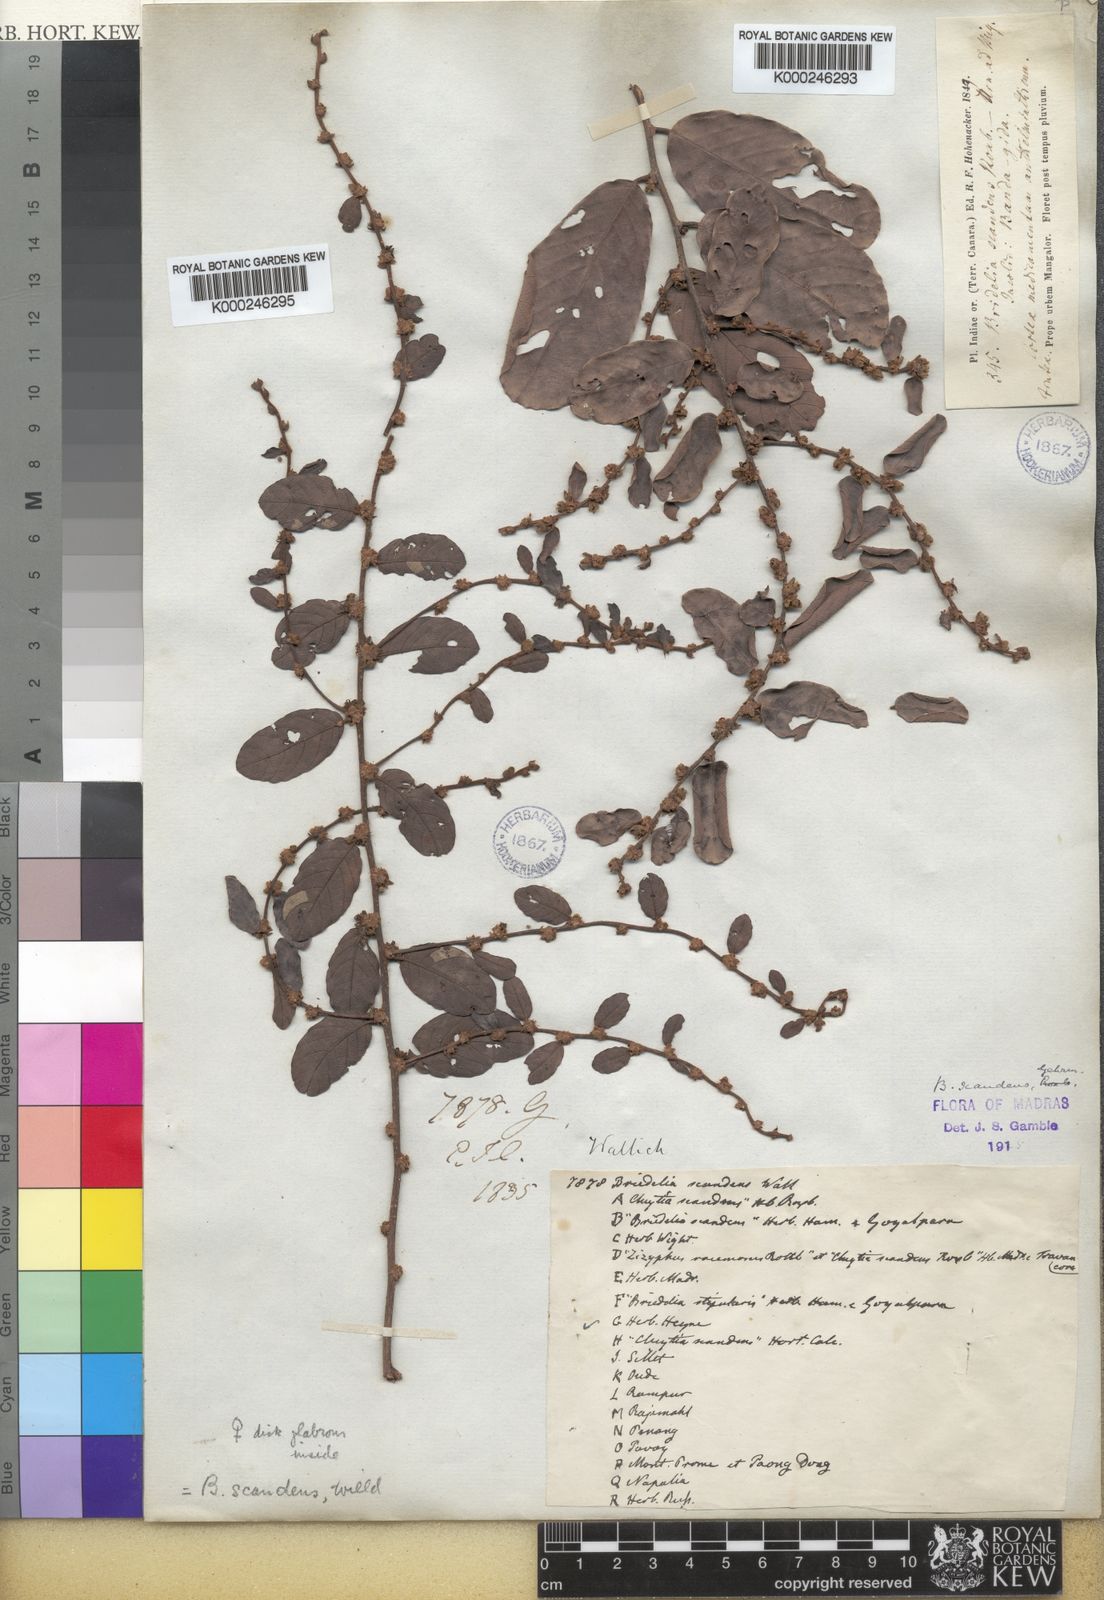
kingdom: Plantae
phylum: Tracheophyta
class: Magnoliopsida
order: Malpighiales
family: Phyllanthaceae
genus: Bridelia
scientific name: Bridelia stipularis
